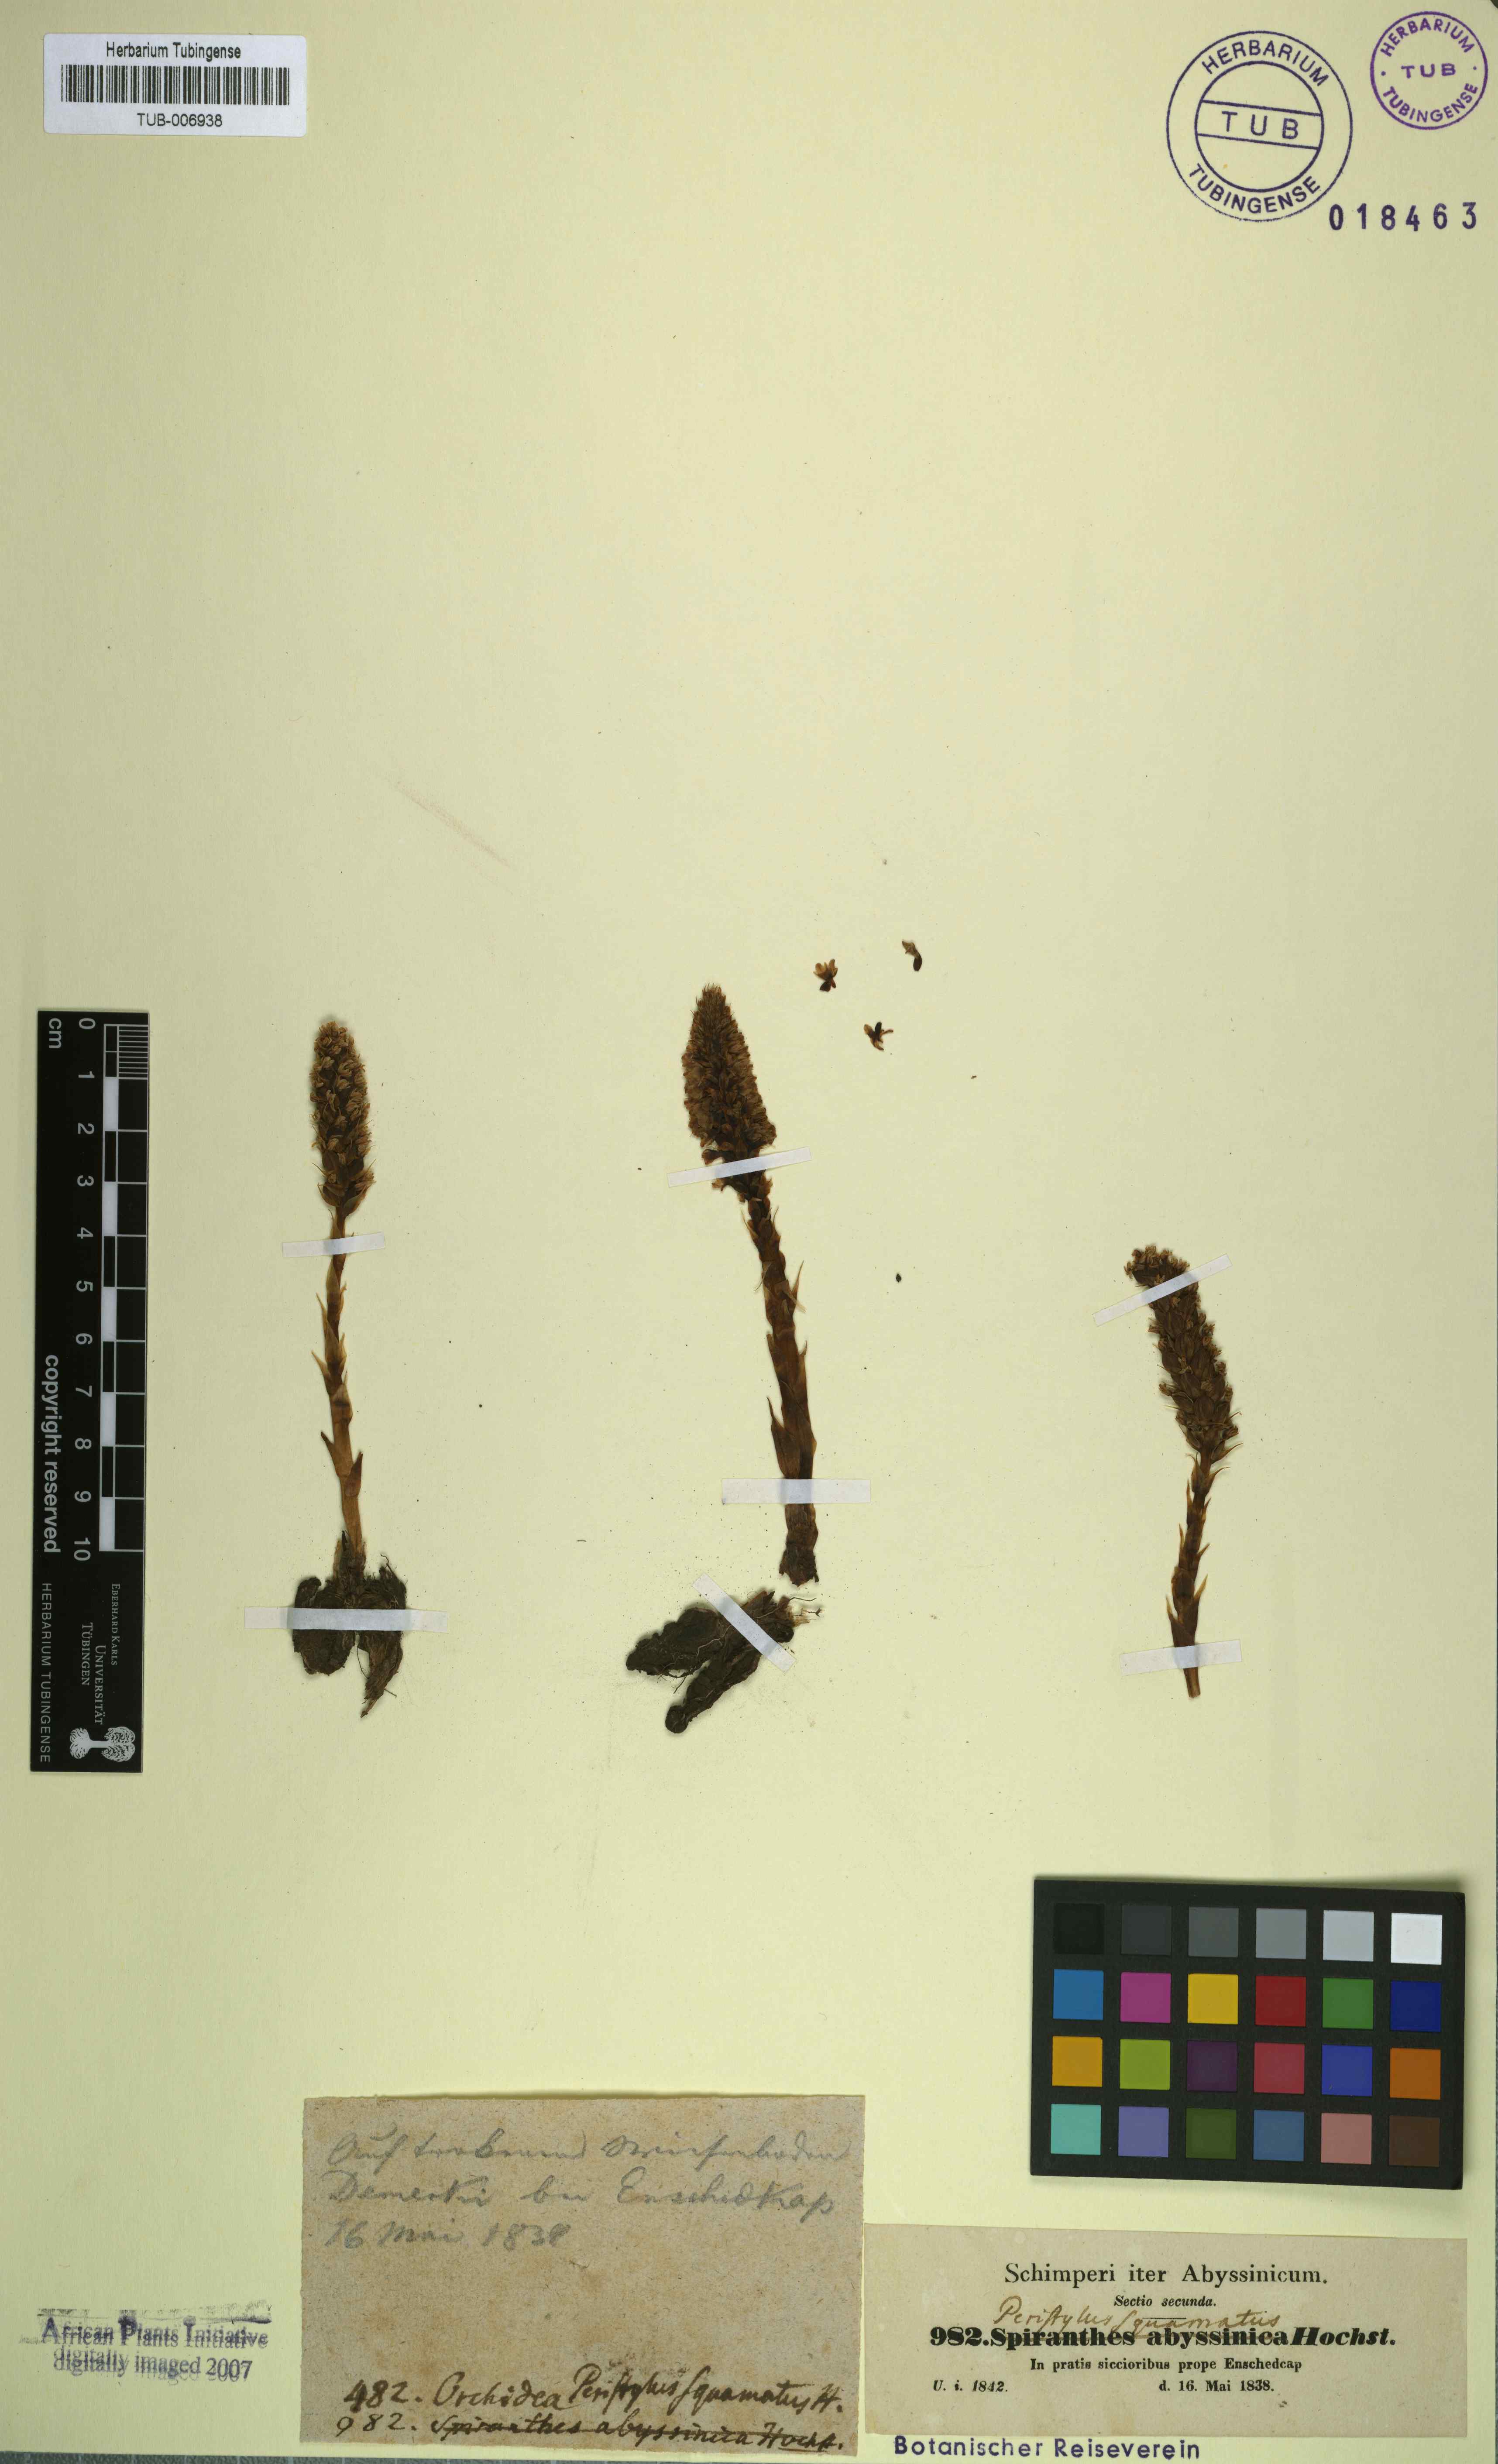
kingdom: Plantae
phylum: Tracheophyta
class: Liliopsida
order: Asparagales
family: Orchidaceae
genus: Deroemeria
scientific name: Deroemeria squamata
